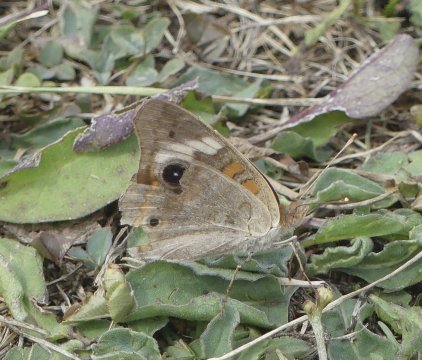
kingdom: Animalia
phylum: Arthropoda
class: Insecta
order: Lepidoptera
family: Nymphalidae
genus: Junonia
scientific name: Junonia coenia
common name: Common Buckeye
